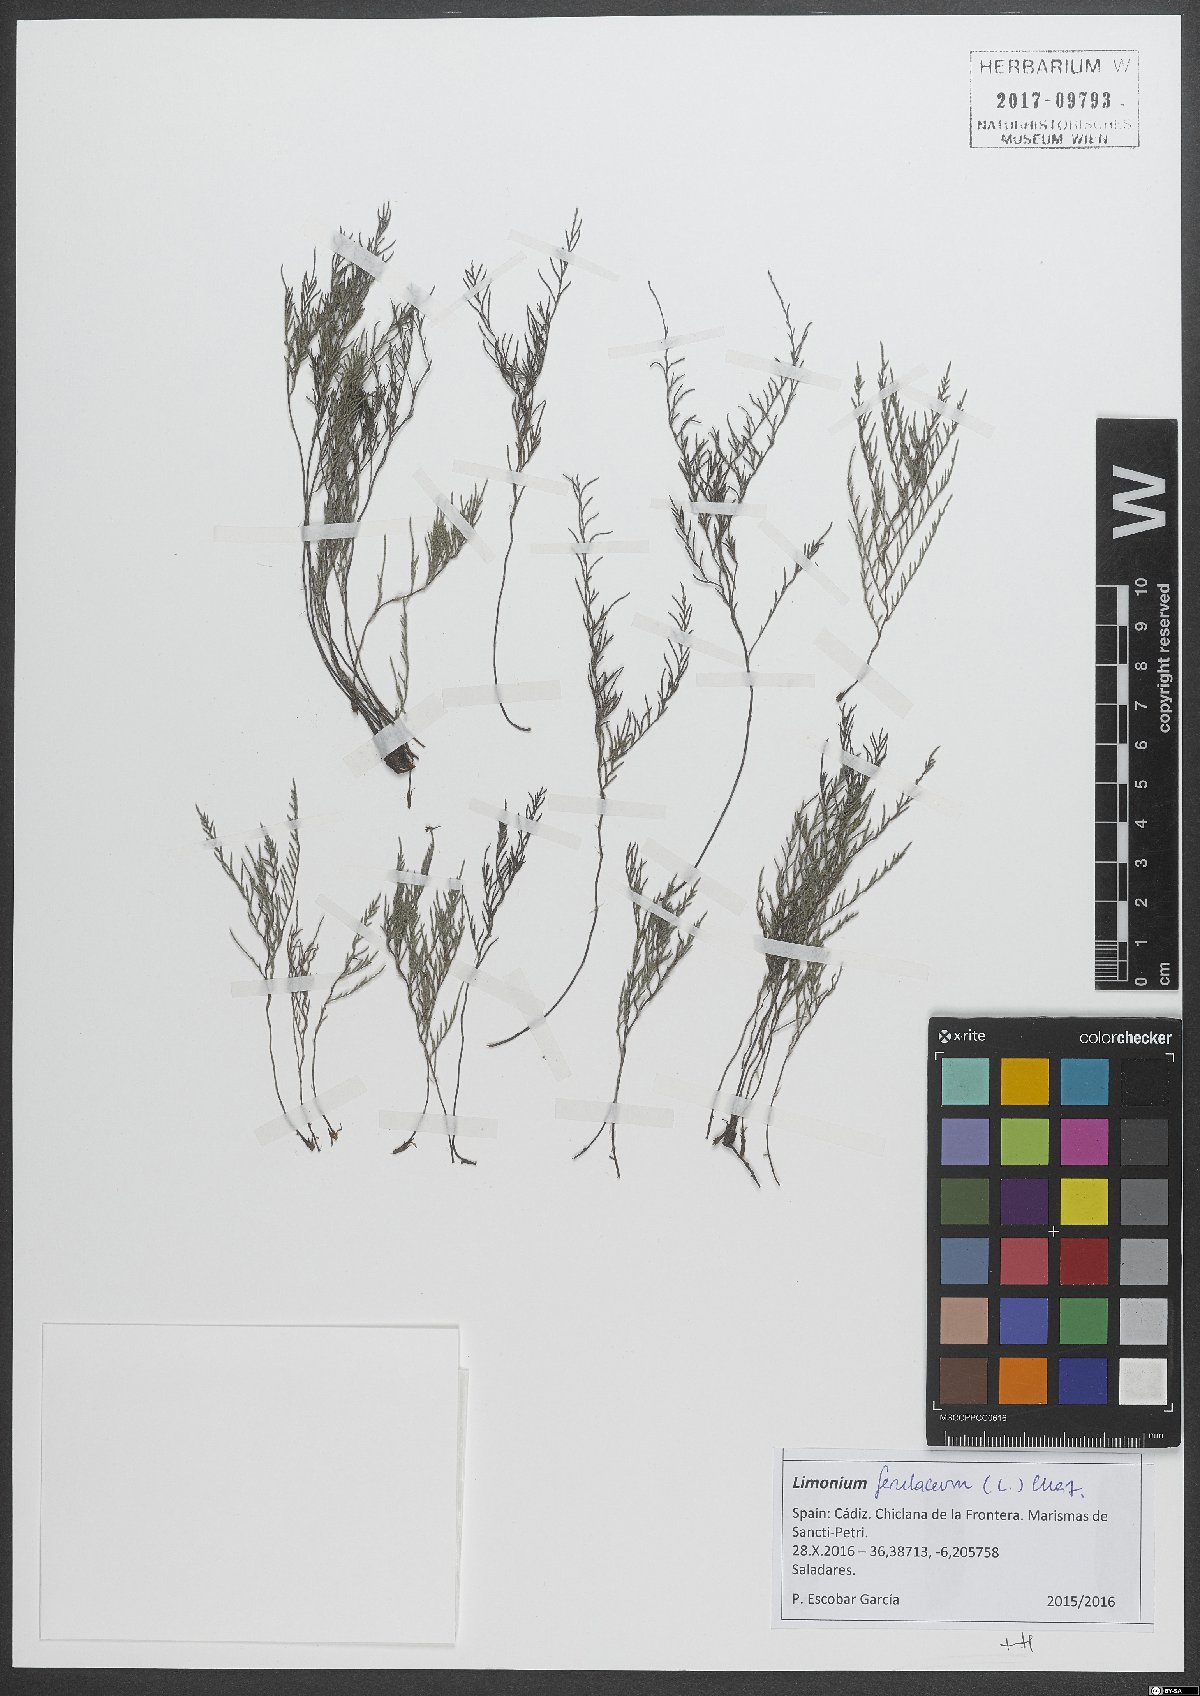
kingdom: Plantae
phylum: Tracheophyta
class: Magnoliopsida
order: Caryophyllales
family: Plumbaginaceae
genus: Myriolimon
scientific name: Myriolimon ferulaceum
